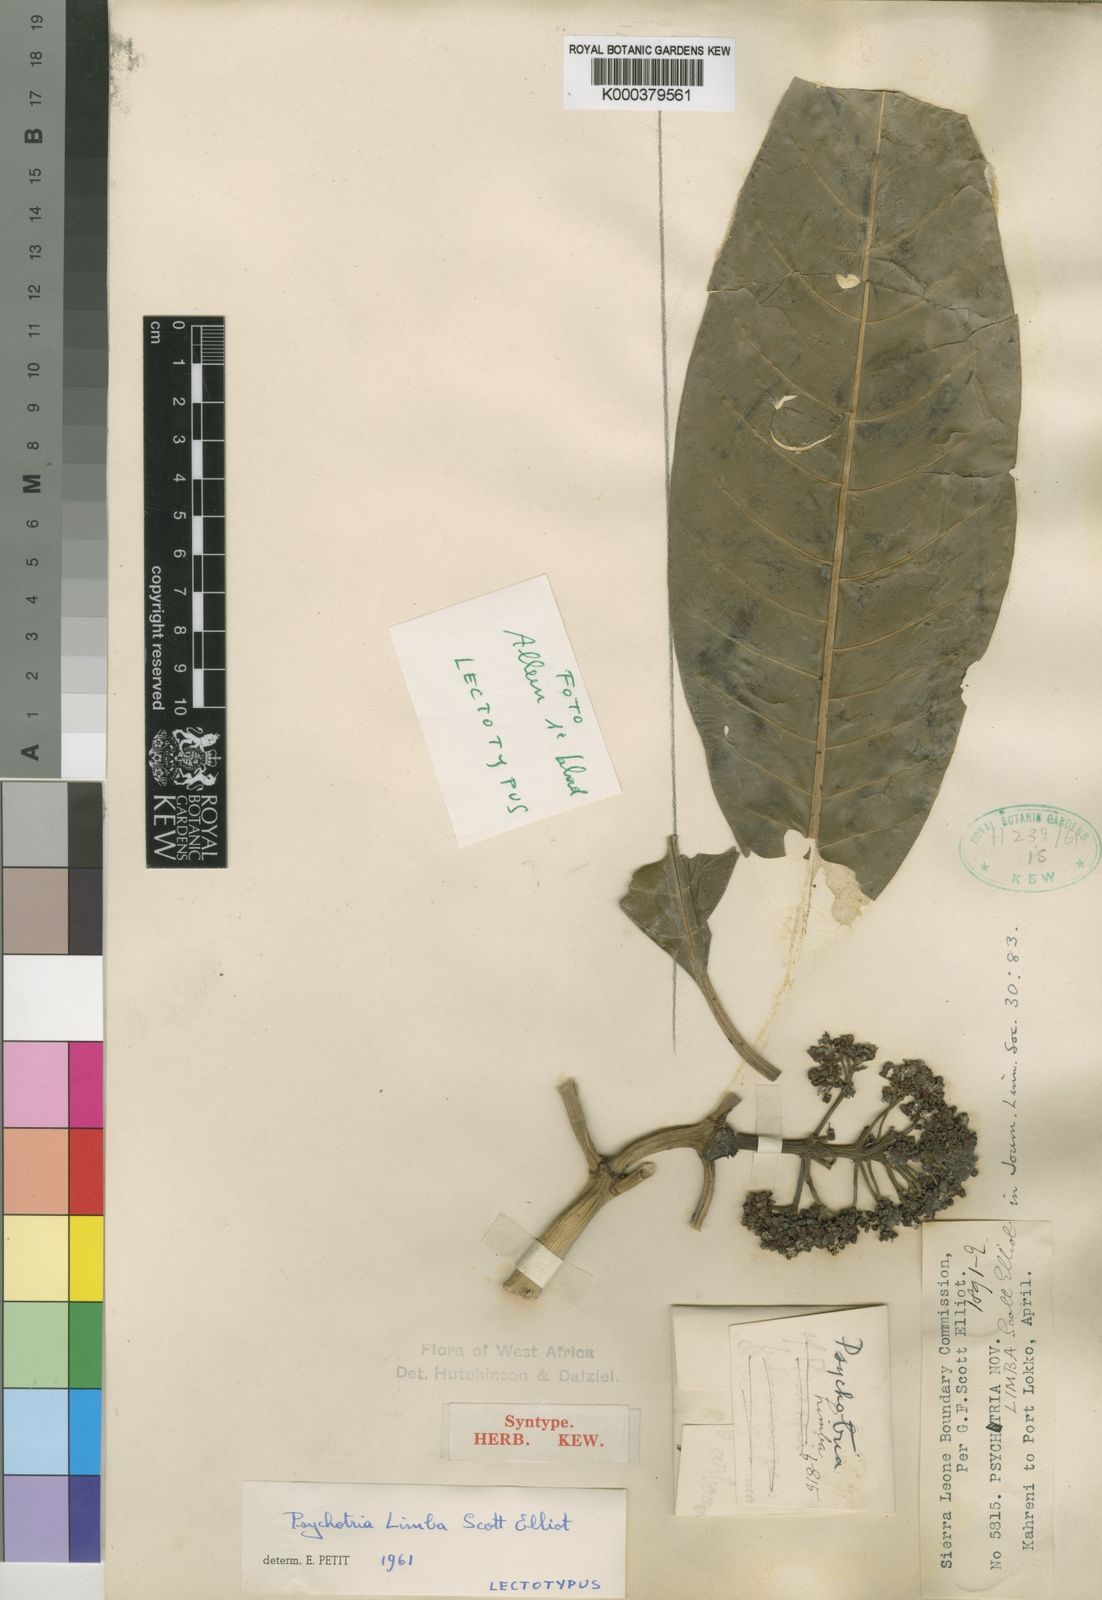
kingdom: Plantae
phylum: Tracheophyta
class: Magnoliopsida
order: Gentianales
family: Rubiaceae
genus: Psychotria
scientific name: Psychotria limba
